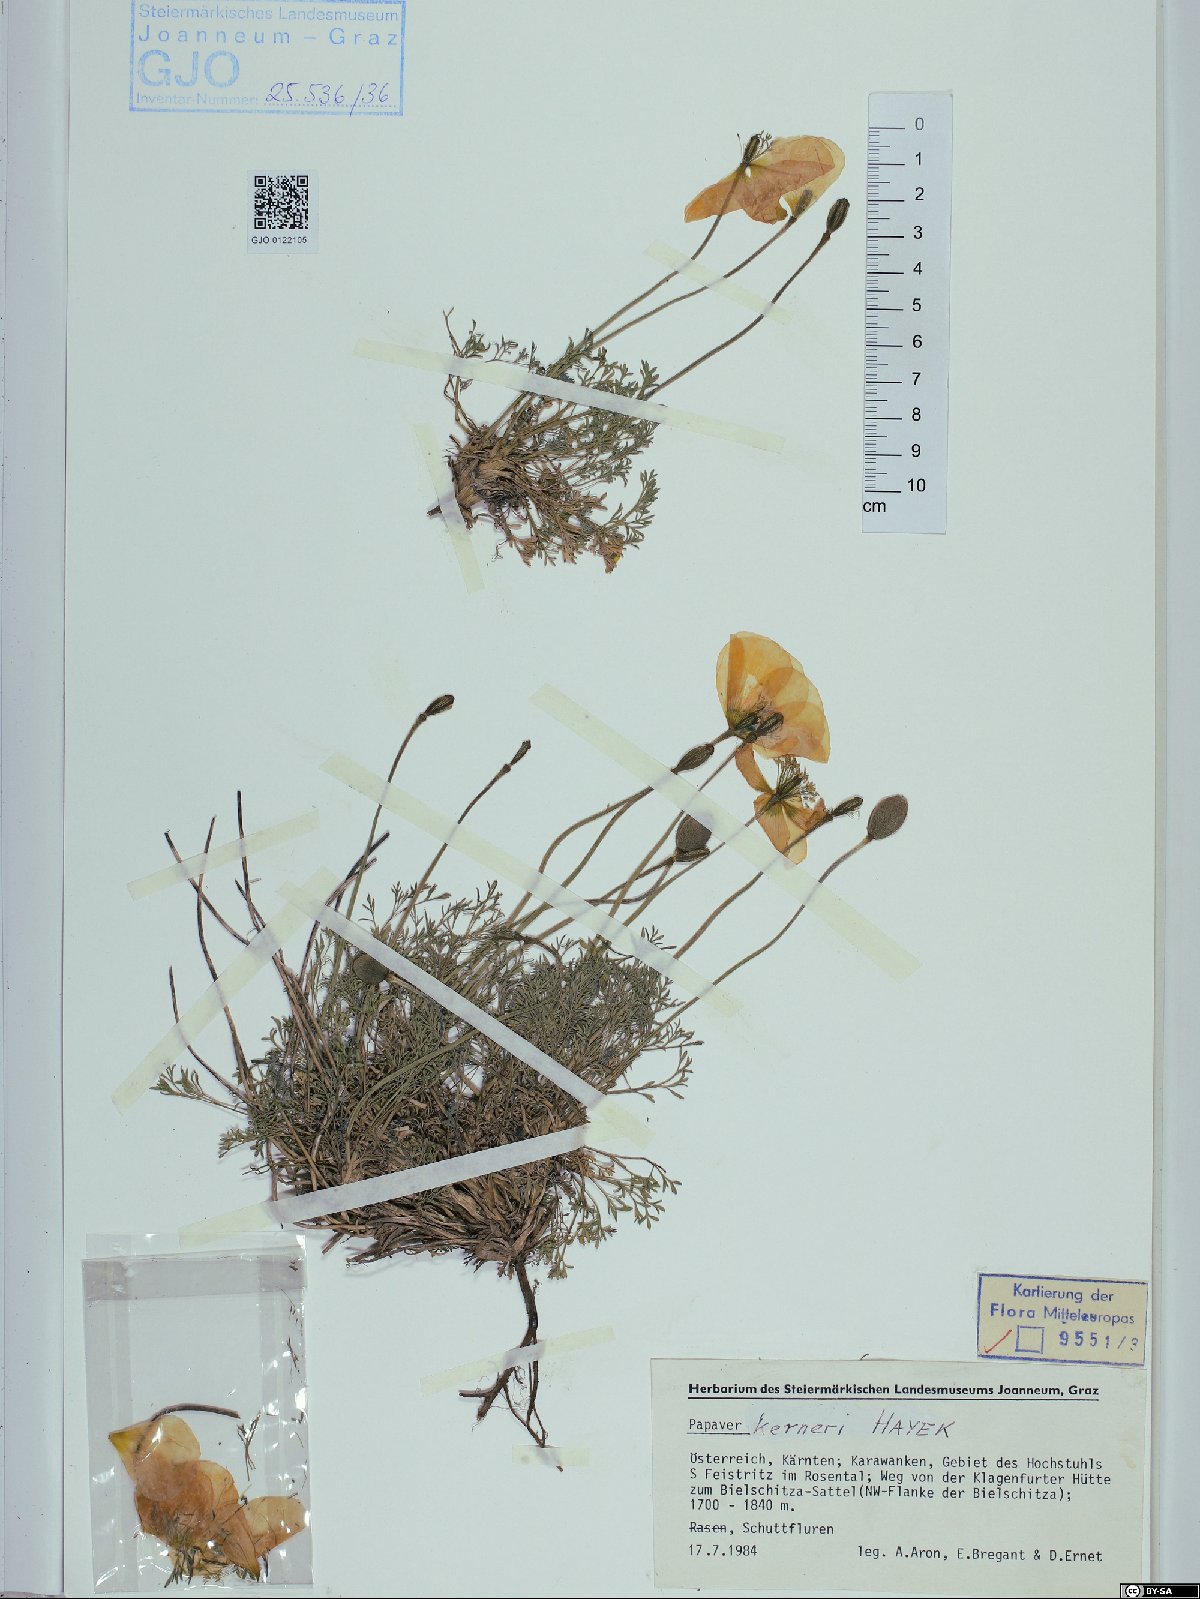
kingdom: Plantae
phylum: Tracheophyta
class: Magnoliopsida
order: Ranunculales
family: Papaveraceae
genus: Papaver
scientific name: Papaver alpinum
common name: Austrian poppy
